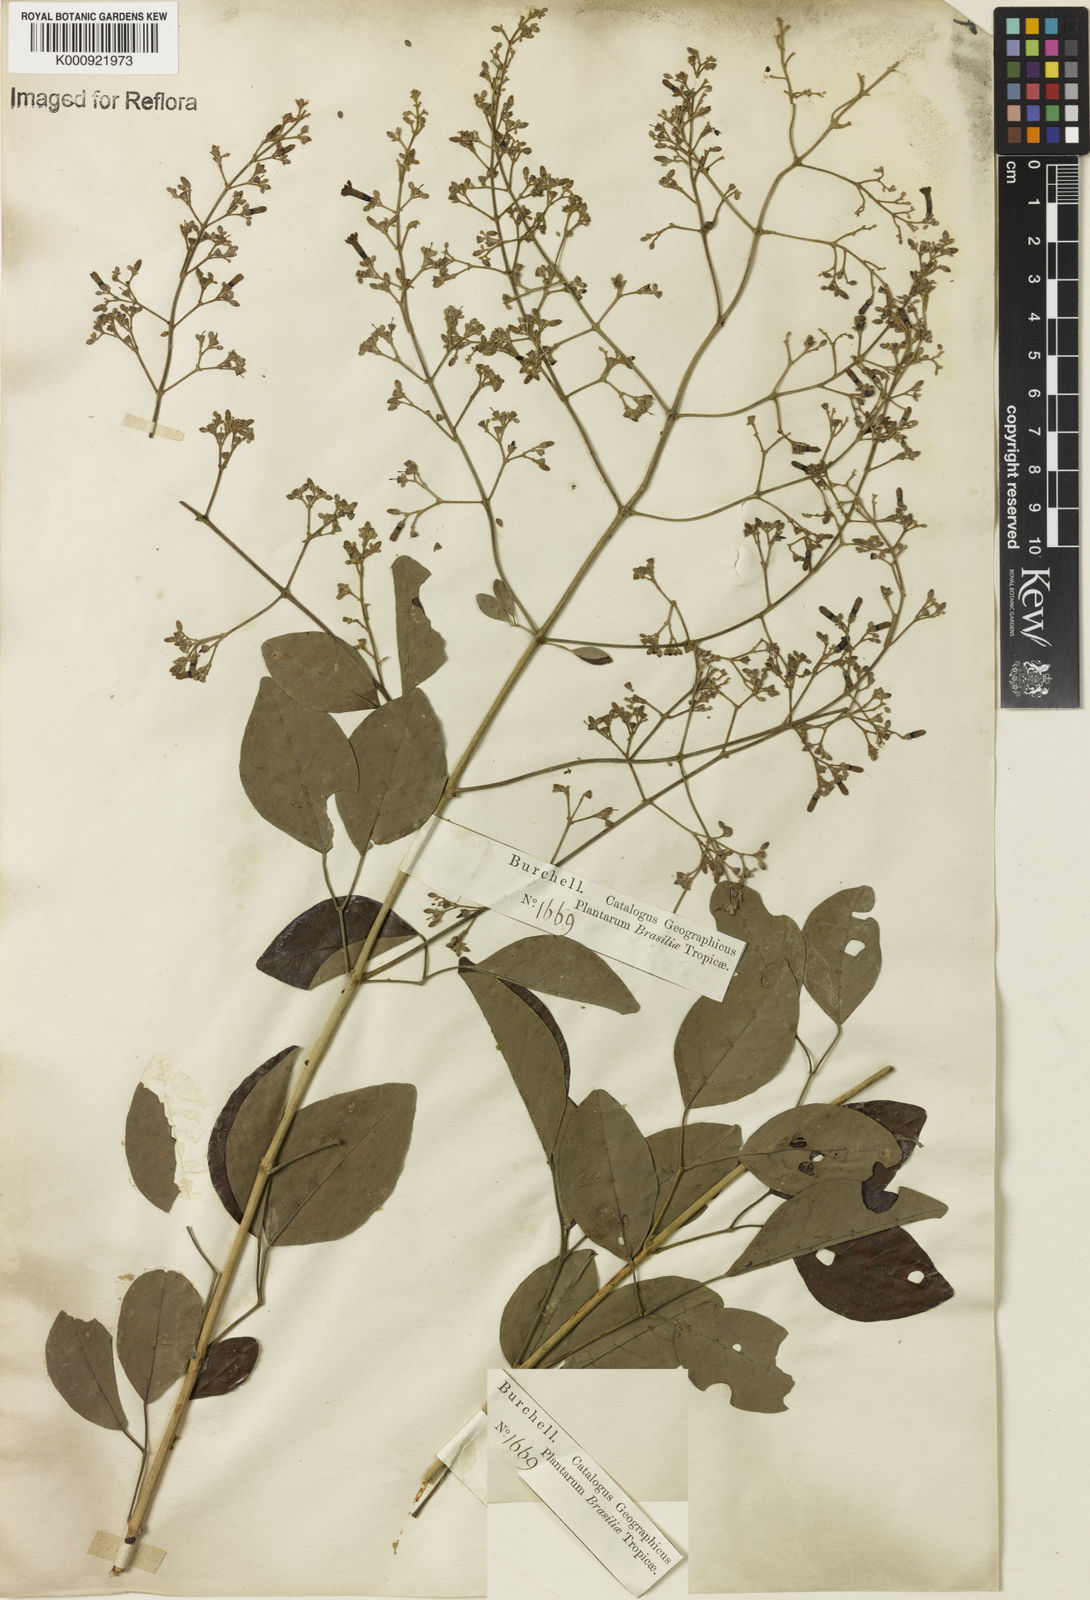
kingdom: Plantae
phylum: Tracheophyta
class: Magnoliopsida
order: Lamiales
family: Bignoniaceae
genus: Fridericia
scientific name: Fridericia rego
